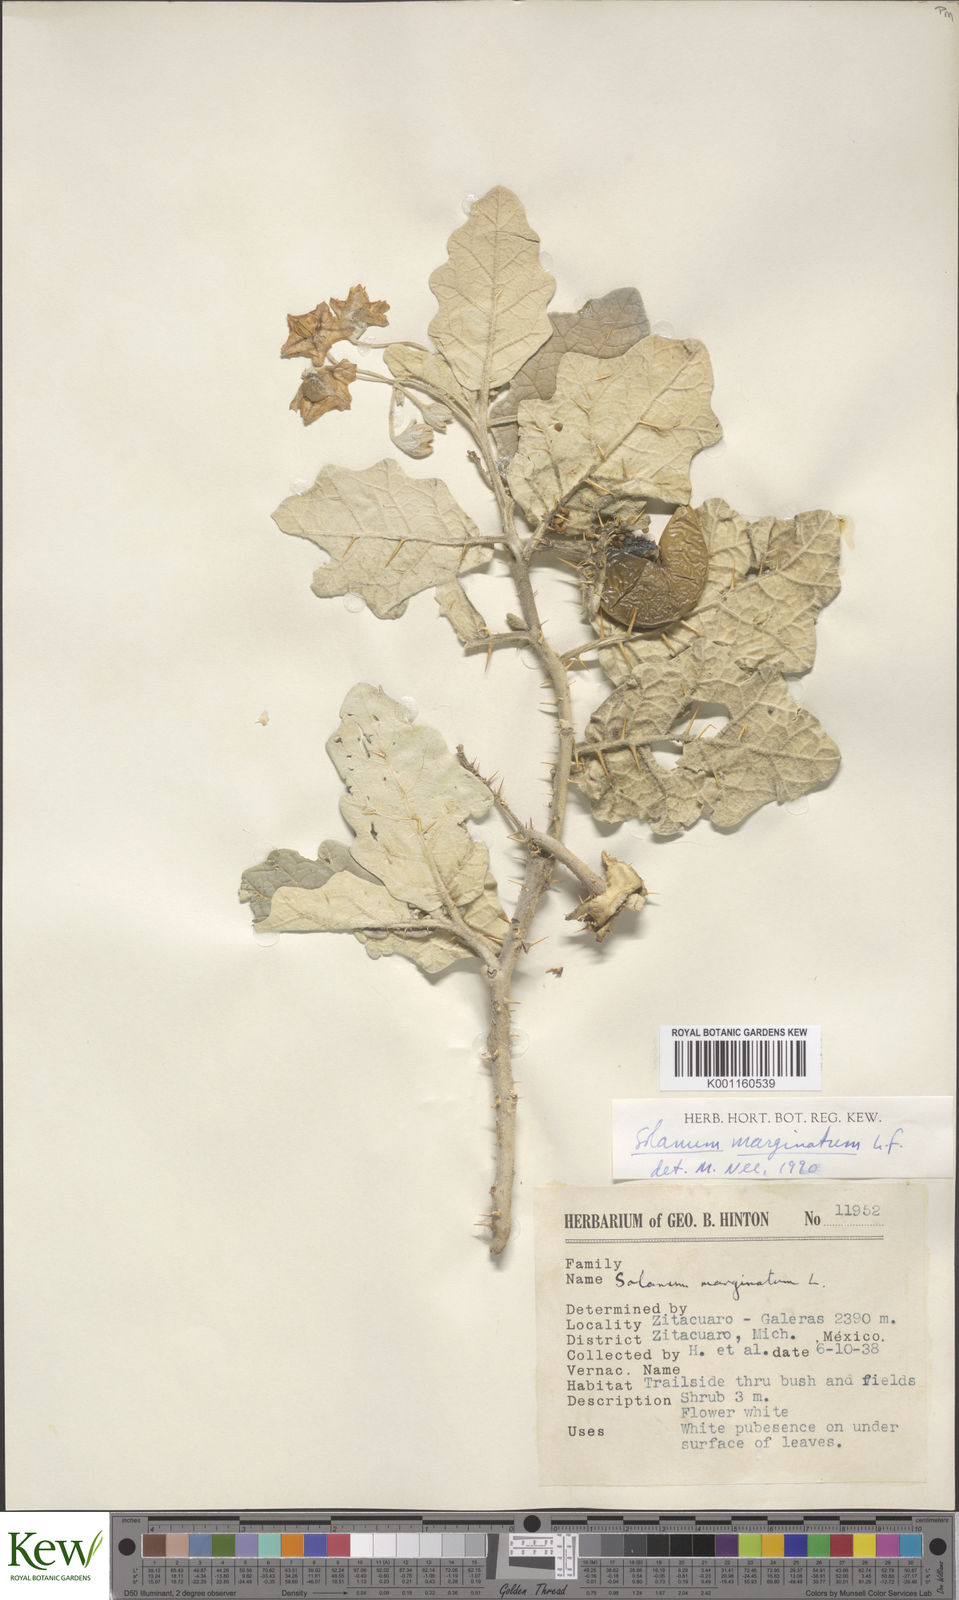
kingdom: Plantae
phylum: Tracheophyta
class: Magnoliopsida
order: Solanales
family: Solanaceae
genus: Solanum
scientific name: Solanum marginatum
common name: Purple african nightshade
